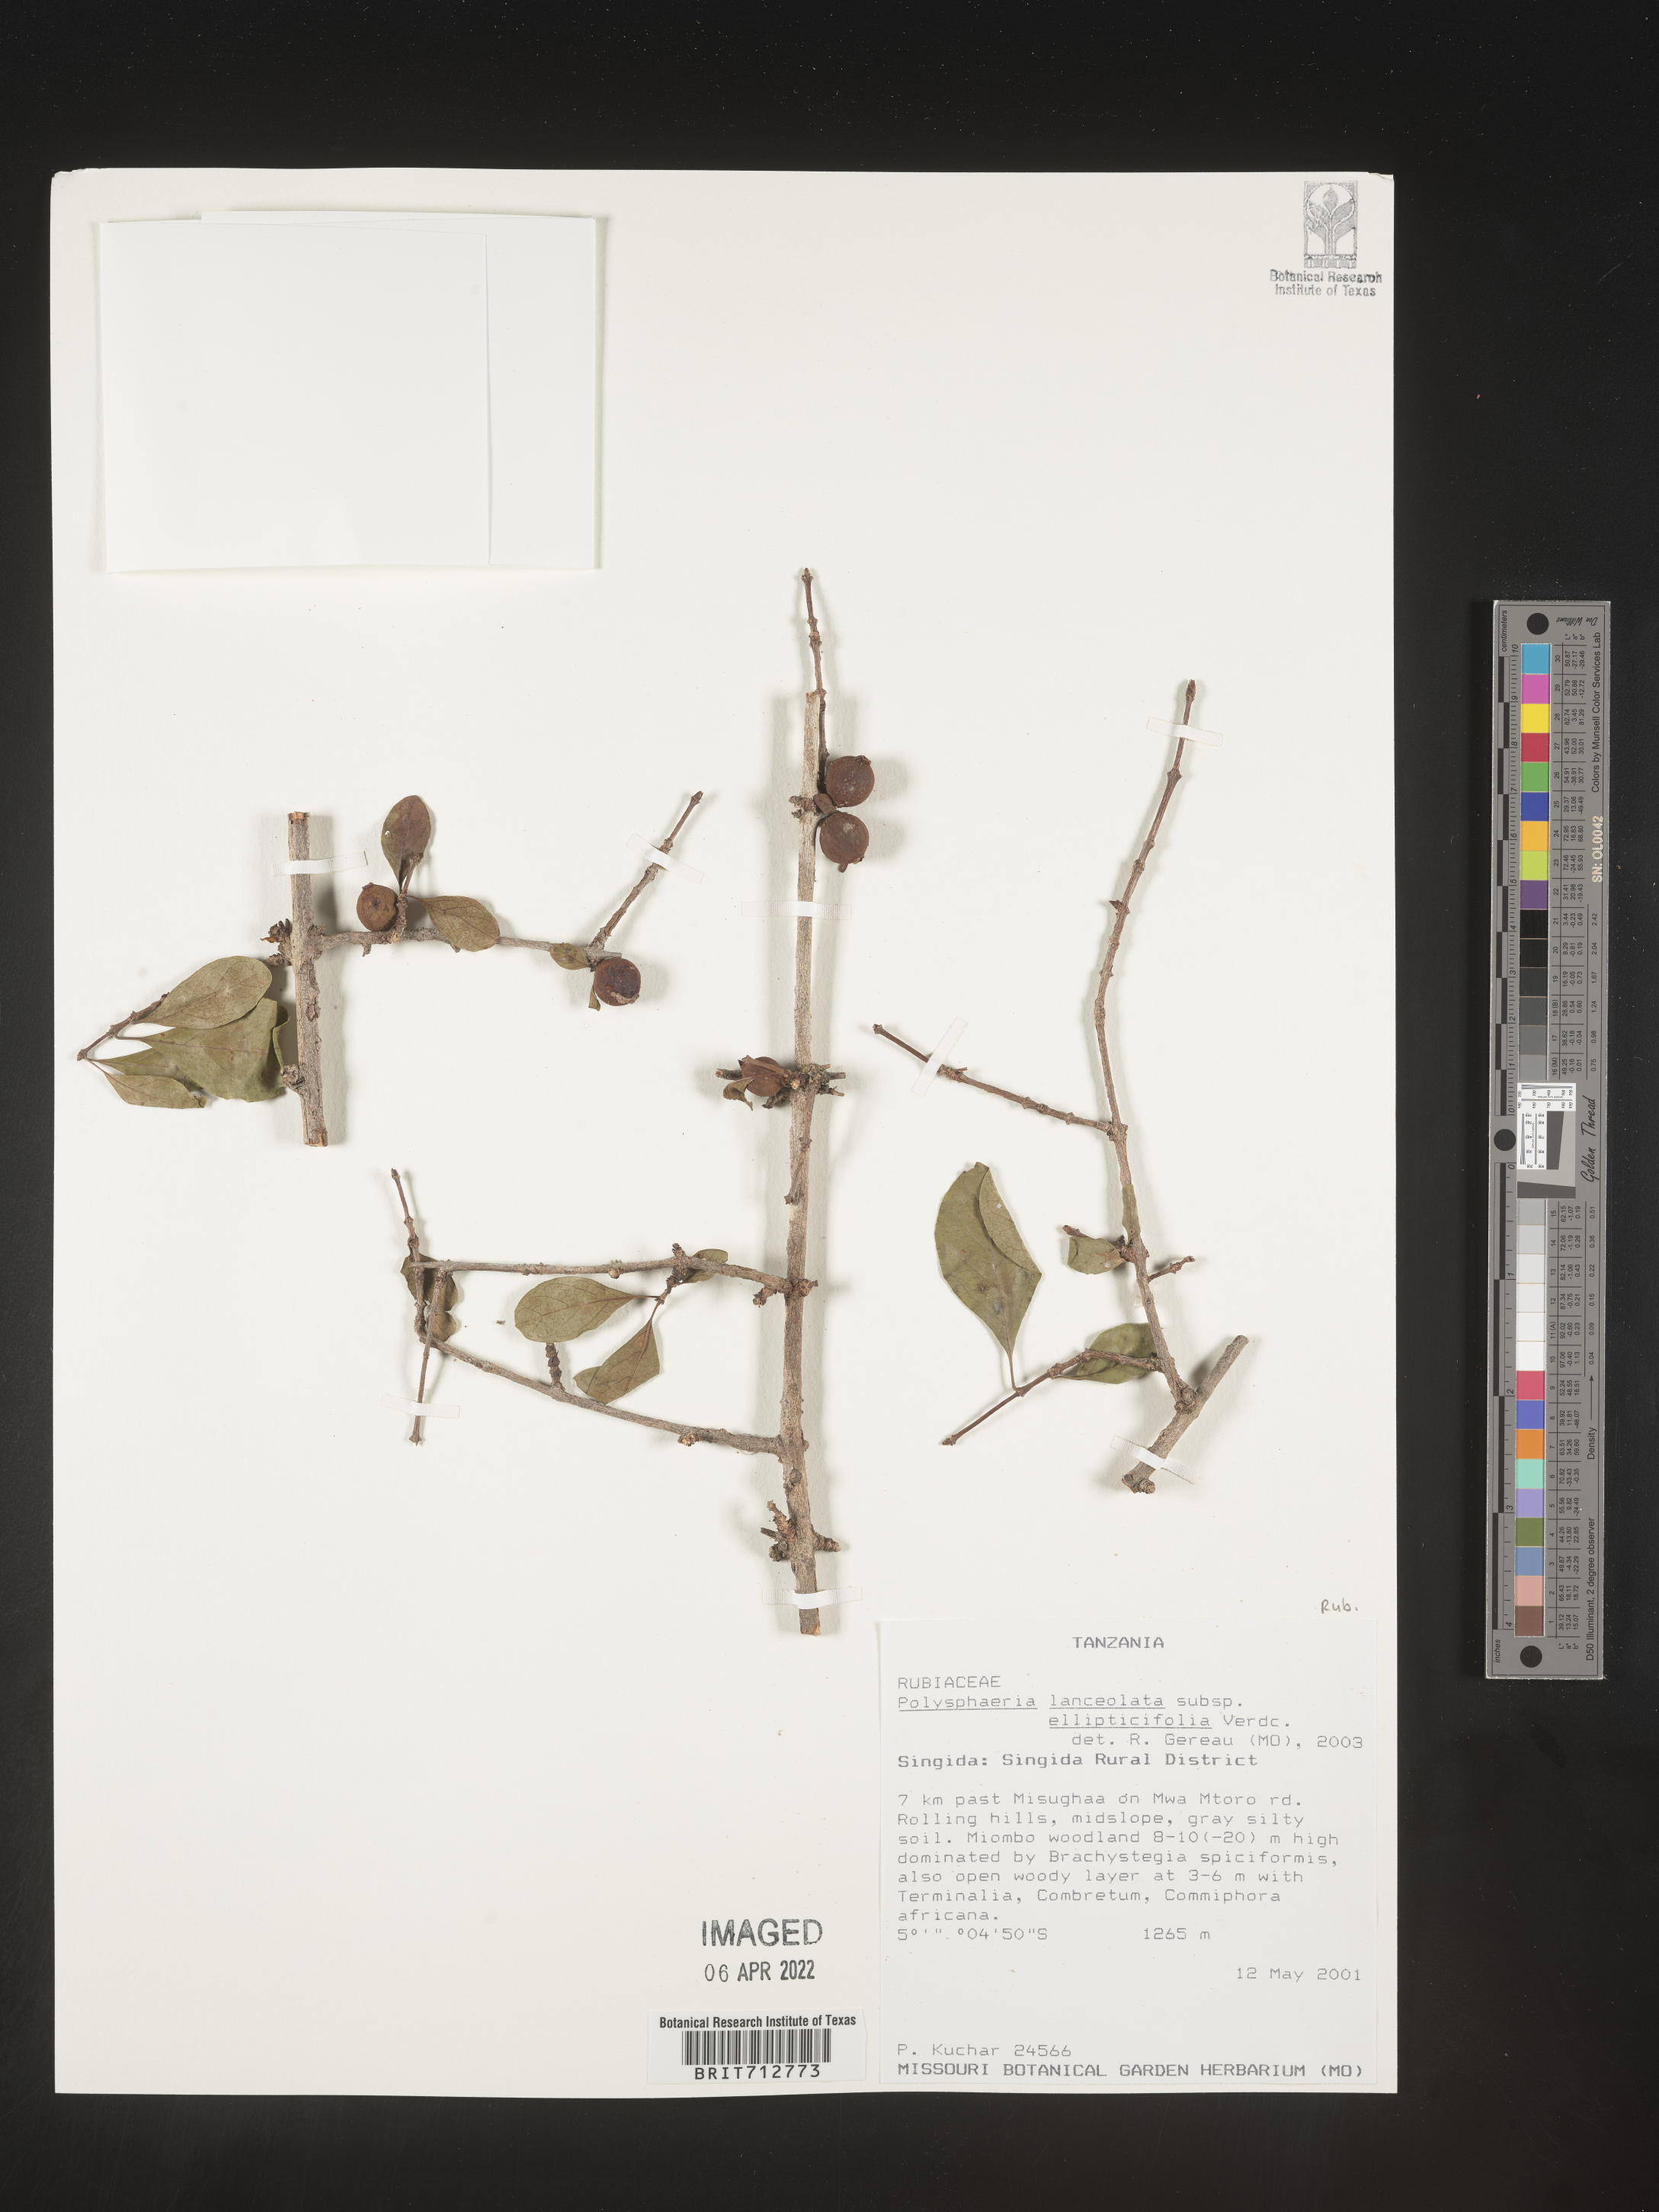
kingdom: Plantae
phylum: Tracheophyta
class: Magnoliopsida
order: Gentianales
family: Rubiaceae
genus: Polysphaeria
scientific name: Polysphaeria
